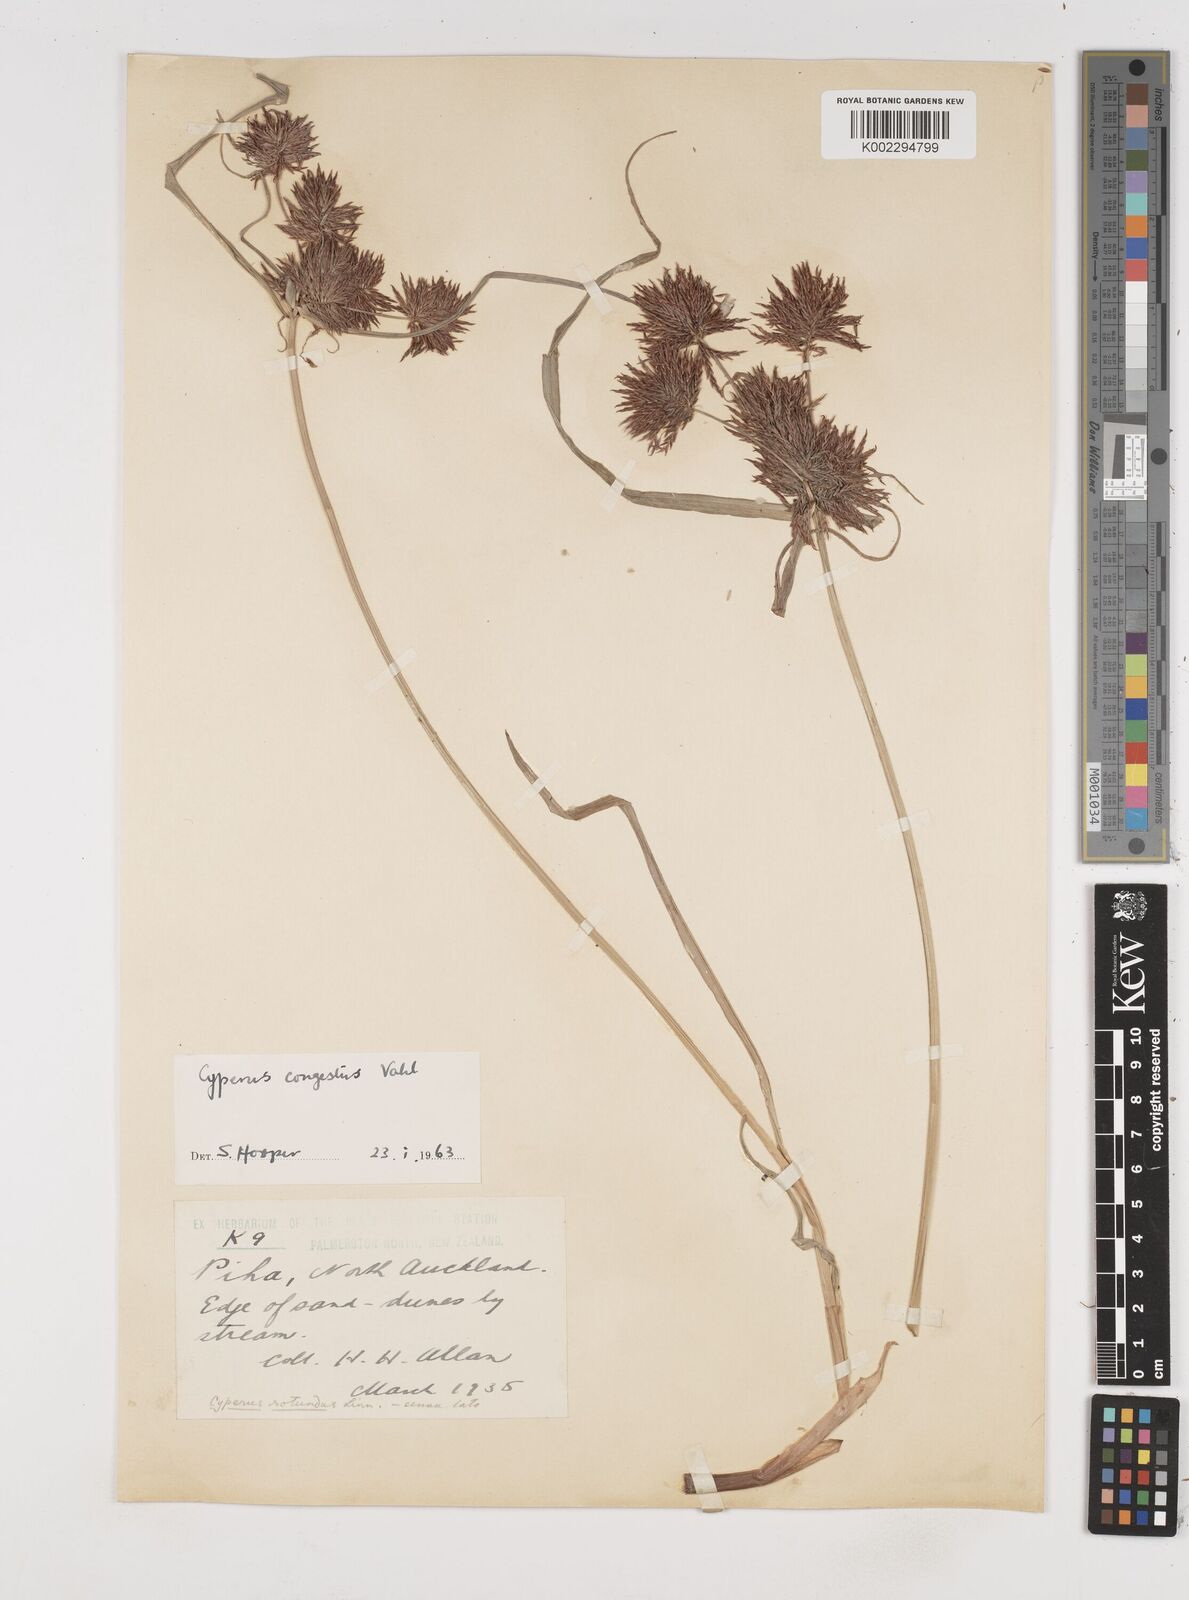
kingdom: Plantae
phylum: Tracheophyta
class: Liliopsida
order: Poales
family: Cyperaceae
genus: Cyperus
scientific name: Cyperus congestus
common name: Dense flat sedge
